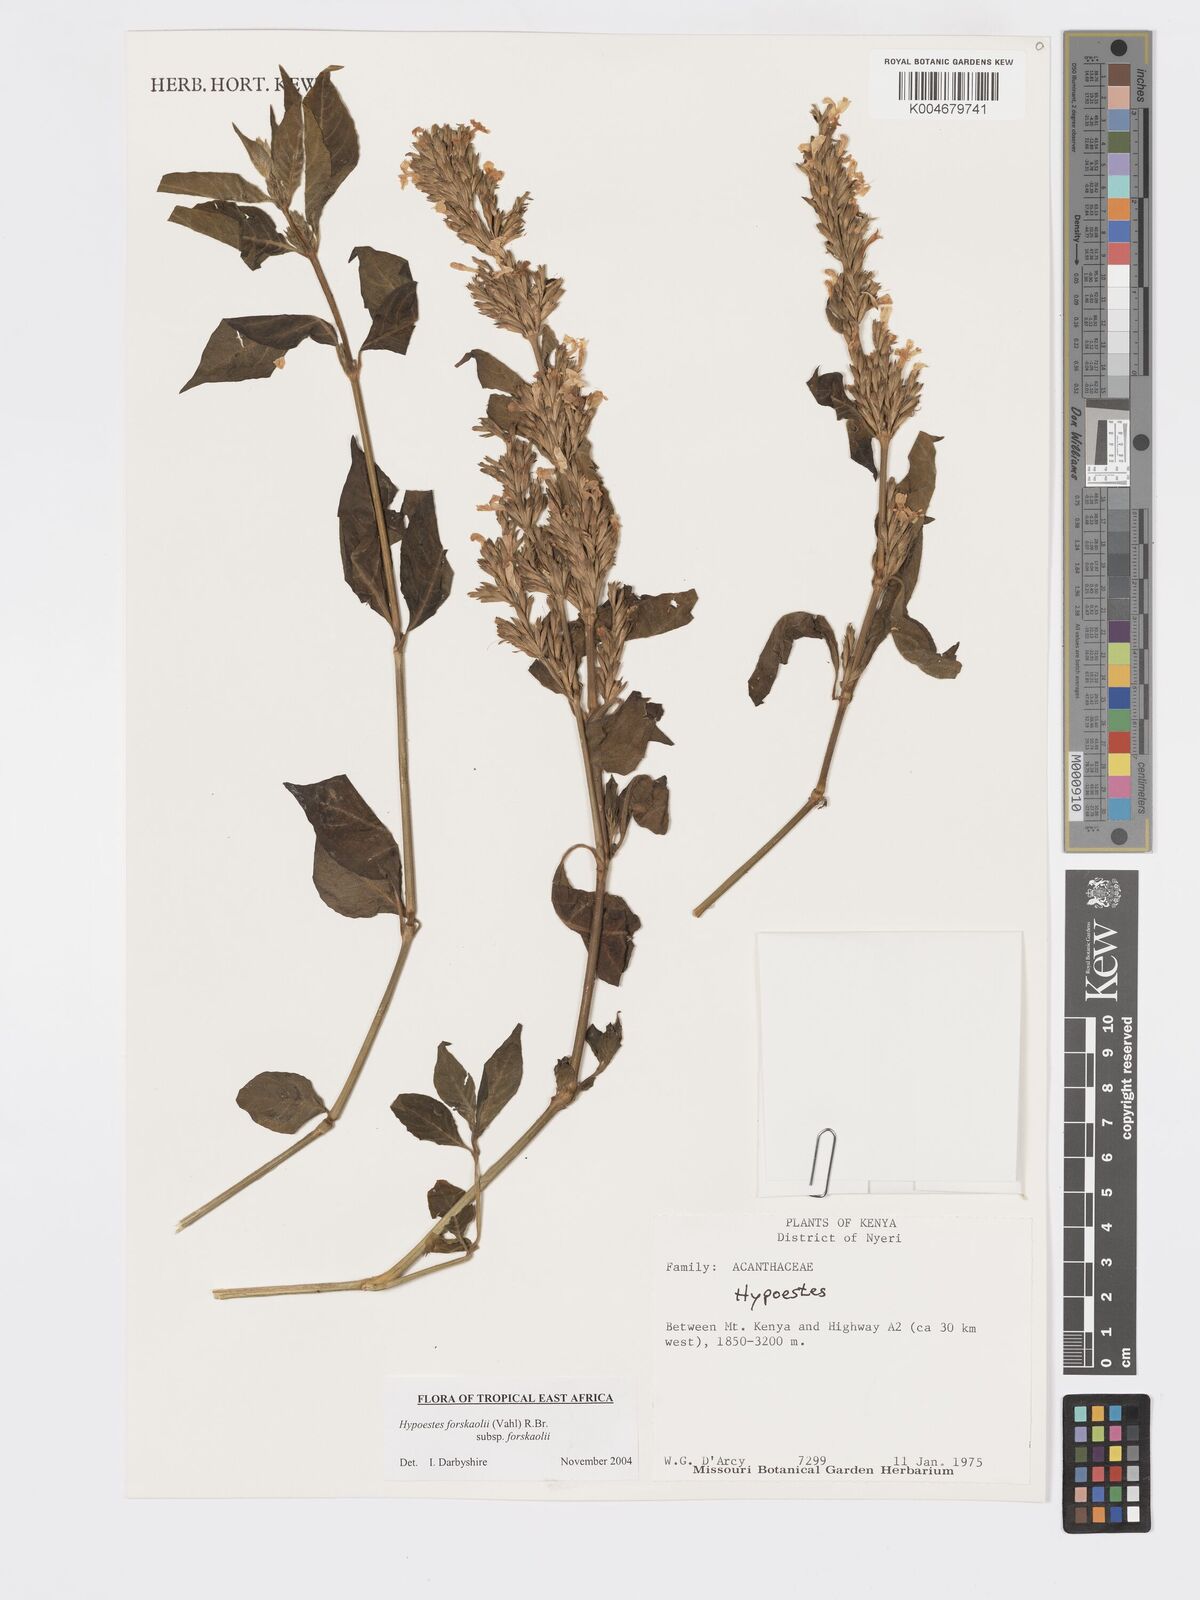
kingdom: Plantae
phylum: Tracheophyta
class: Magnoliopsida
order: Lamiales
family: Acanthaceae
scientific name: Acanthaceae
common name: Acanthaceae
